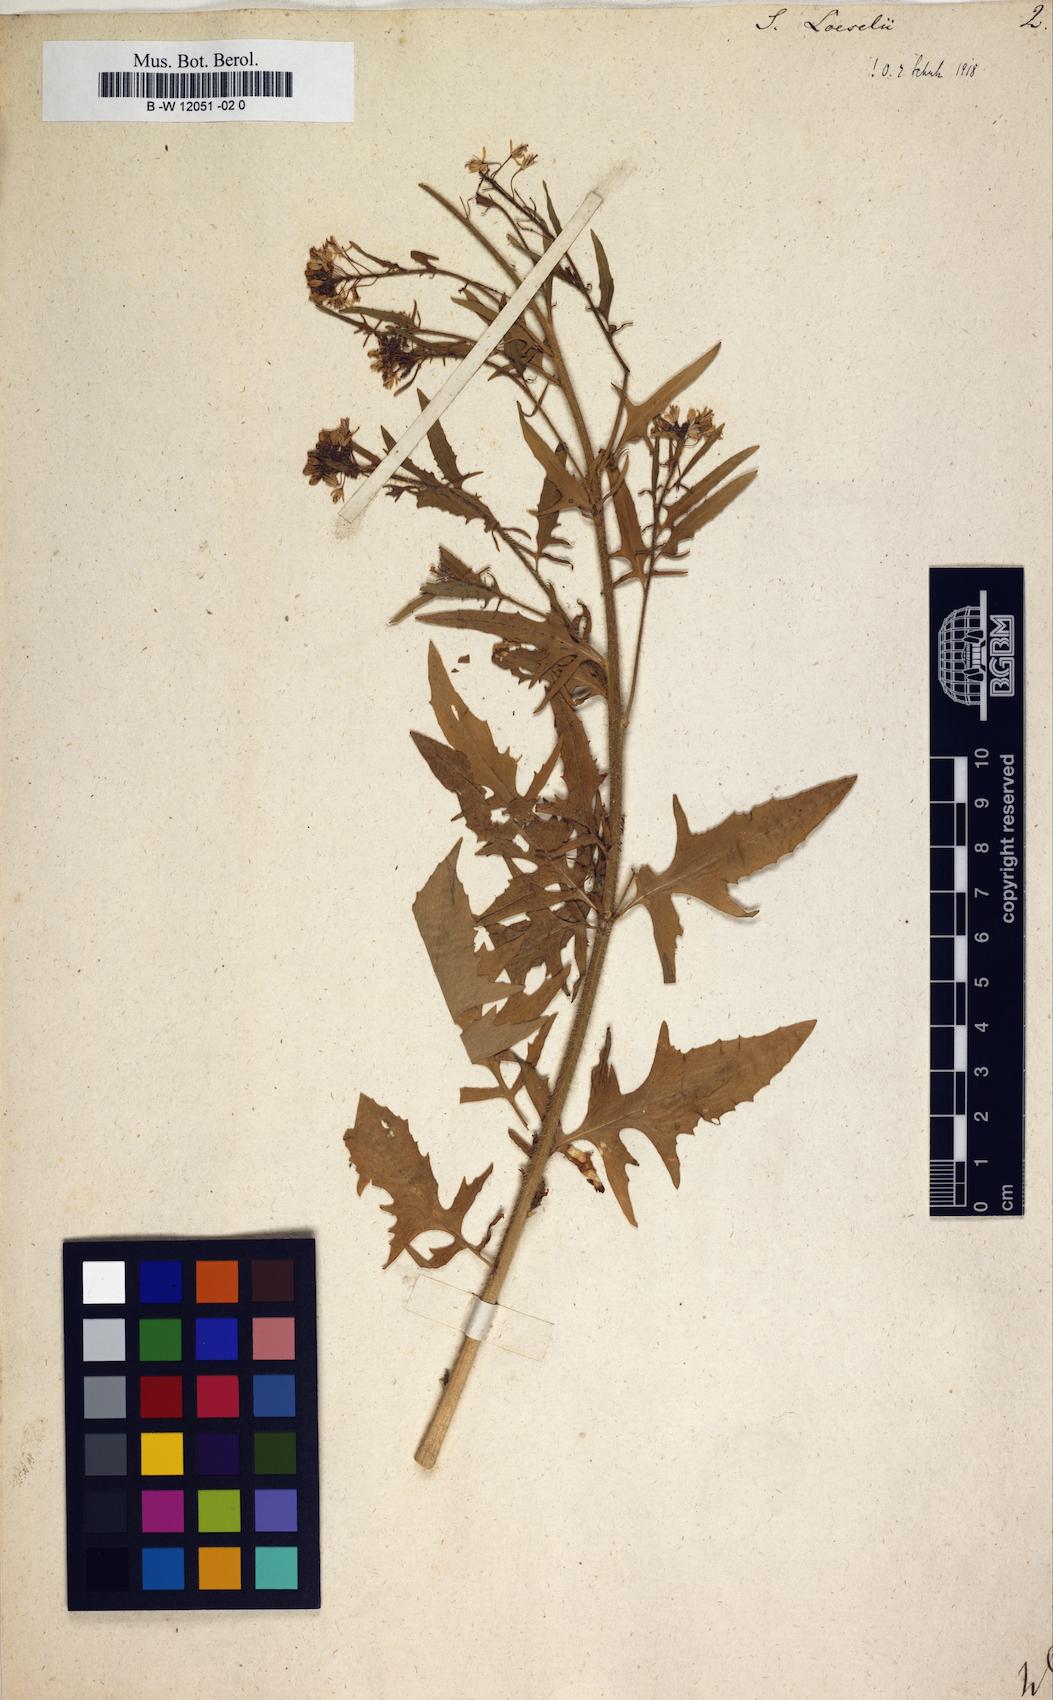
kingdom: Plantae
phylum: Tracheophyta
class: Magnoliopsida
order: Brassicales
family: Brassicaceae
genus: Sisymbrium
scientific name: Sisymbrium loeselii
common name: False london-rocket
